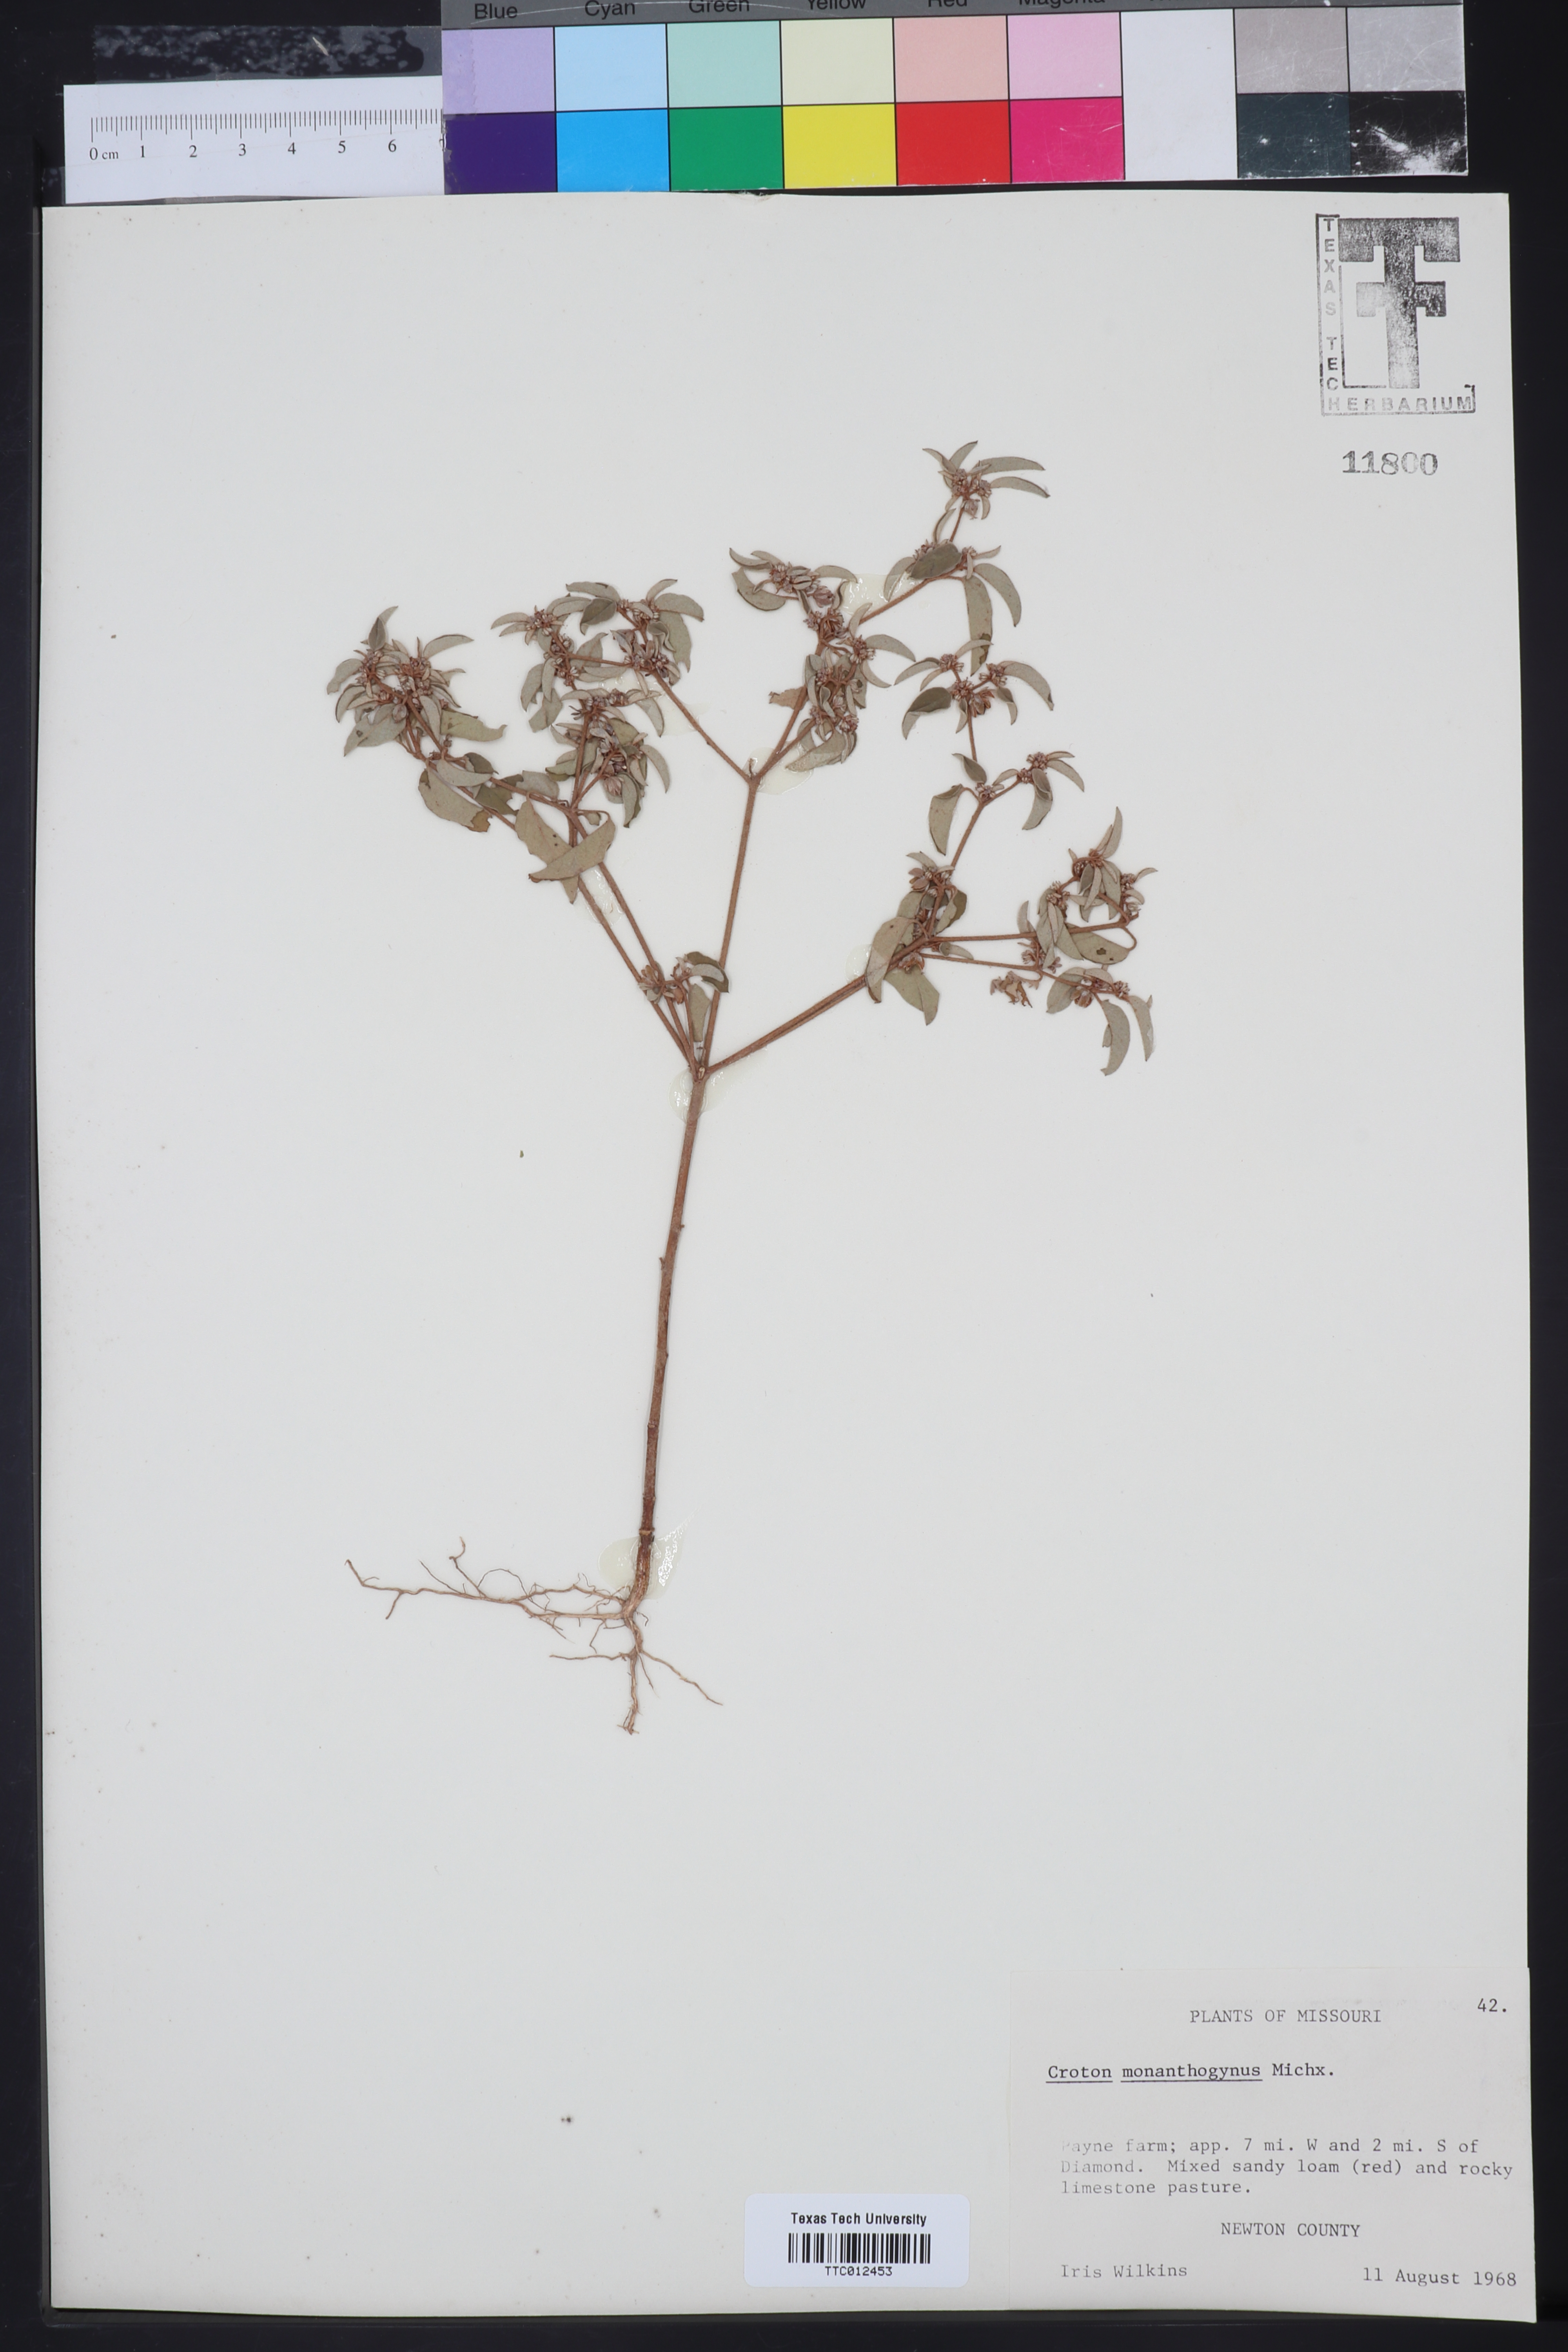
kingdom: Plantae
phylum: Tracheophyta
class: Magnoliopsida
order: Malpighiales
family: Euphorbiaceae
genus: Croton
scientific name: Croton monanthogynus
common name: One-seed croton
